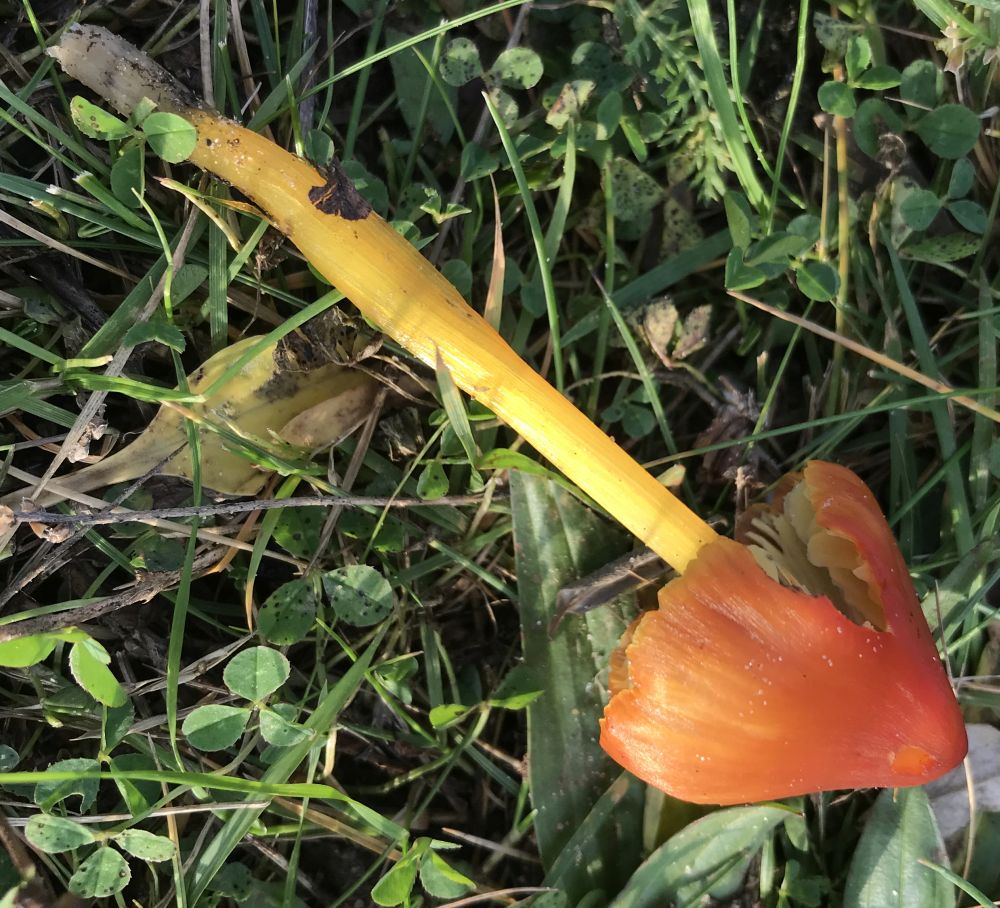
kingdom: Fungi
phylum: Basidiomycota
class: Agaricomycetes
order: Agaricales
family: Hygrophoraceae
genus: Hygrocybe
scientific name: Hygrocybe conica
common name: kegle-vokshat
